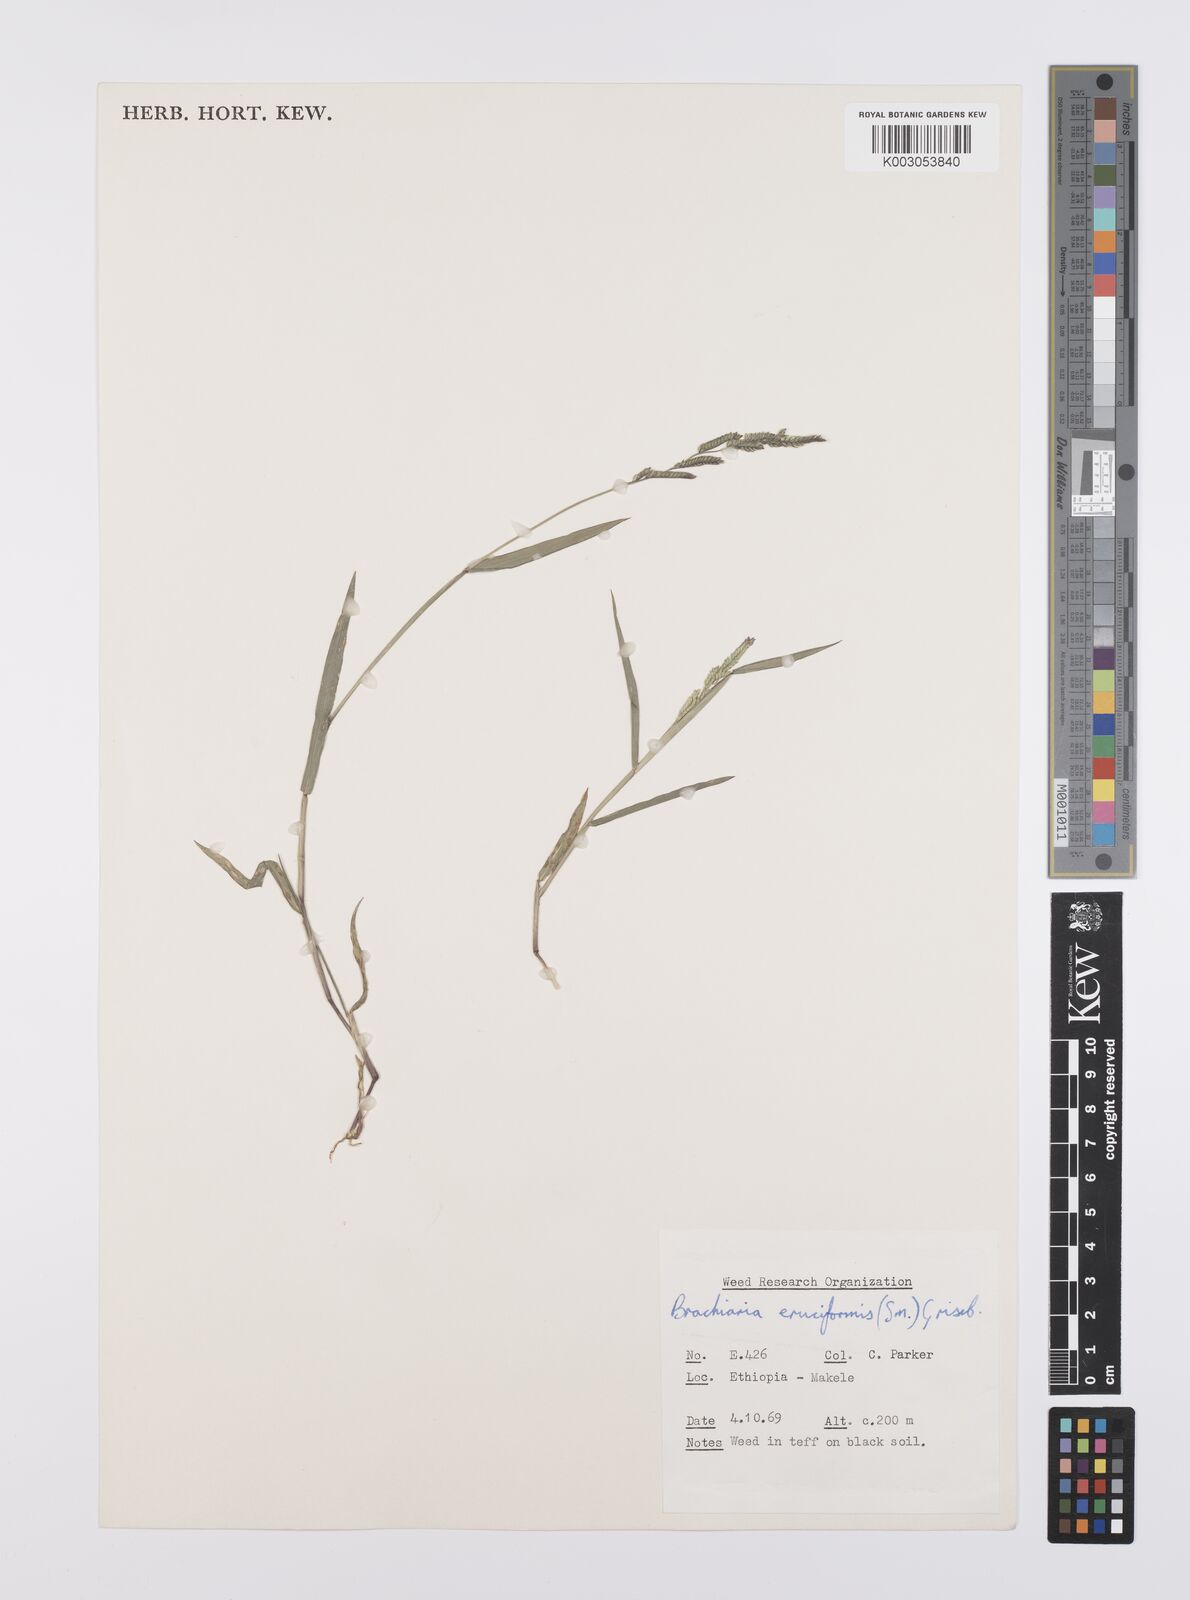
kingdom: Plantae
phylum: Tracheophyta
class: Liliopsida
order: Poales
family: Poaceae
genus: Moorochloa
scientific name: Moorochloa eruciformis
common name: Sweet signalgrass
